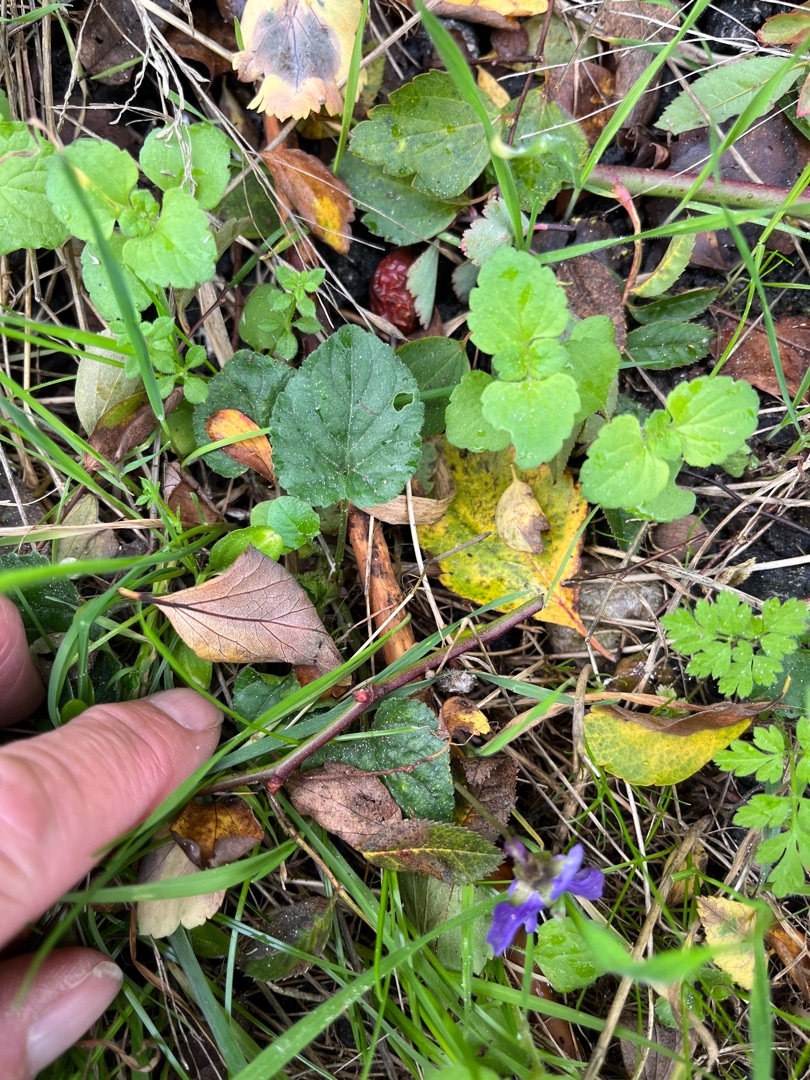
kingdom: Plantae
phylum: Tracheophyta
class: Magnoliopsida
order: Malpighiales
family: Violaceae
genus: Viola
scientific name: Viola odorata
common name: Marts-viol
